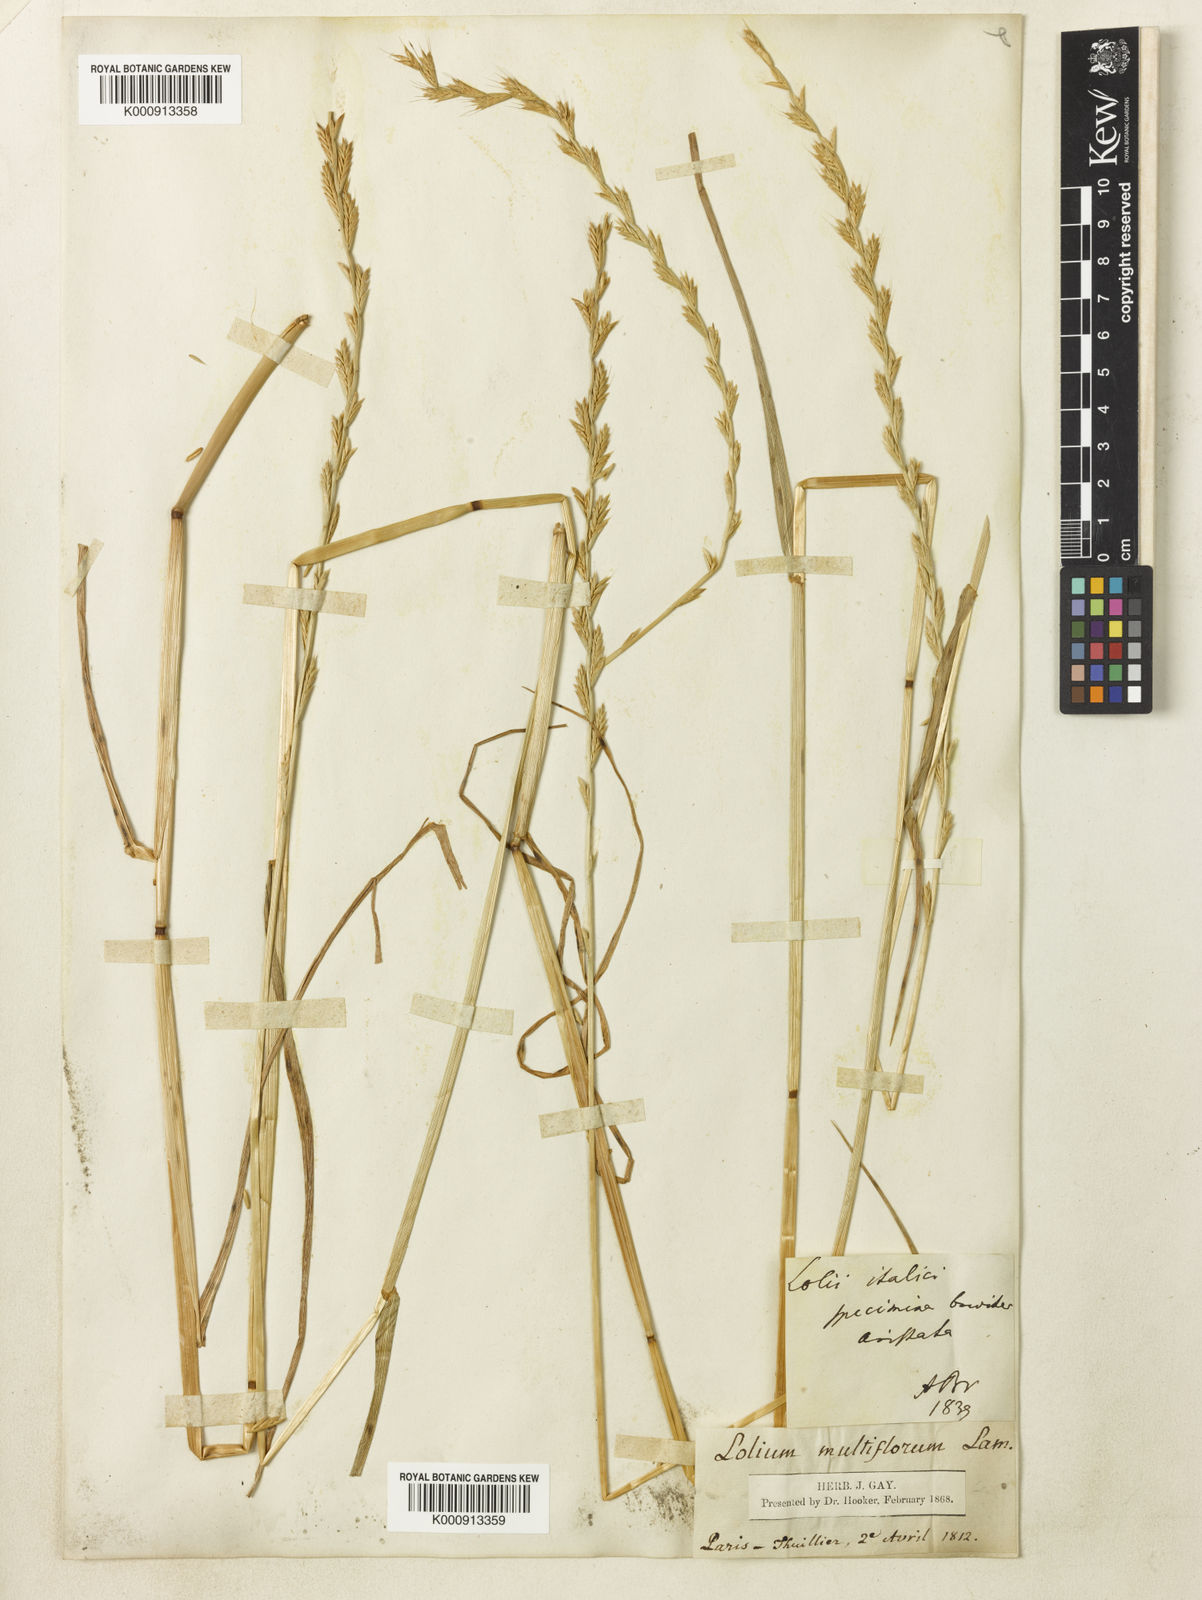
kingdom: Plantae
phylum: Tracheophyta
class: Liliopsida
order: Poales
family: Poaceae
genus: Lolium
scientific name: Lolium multiflorum
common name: Annual ryegrass
